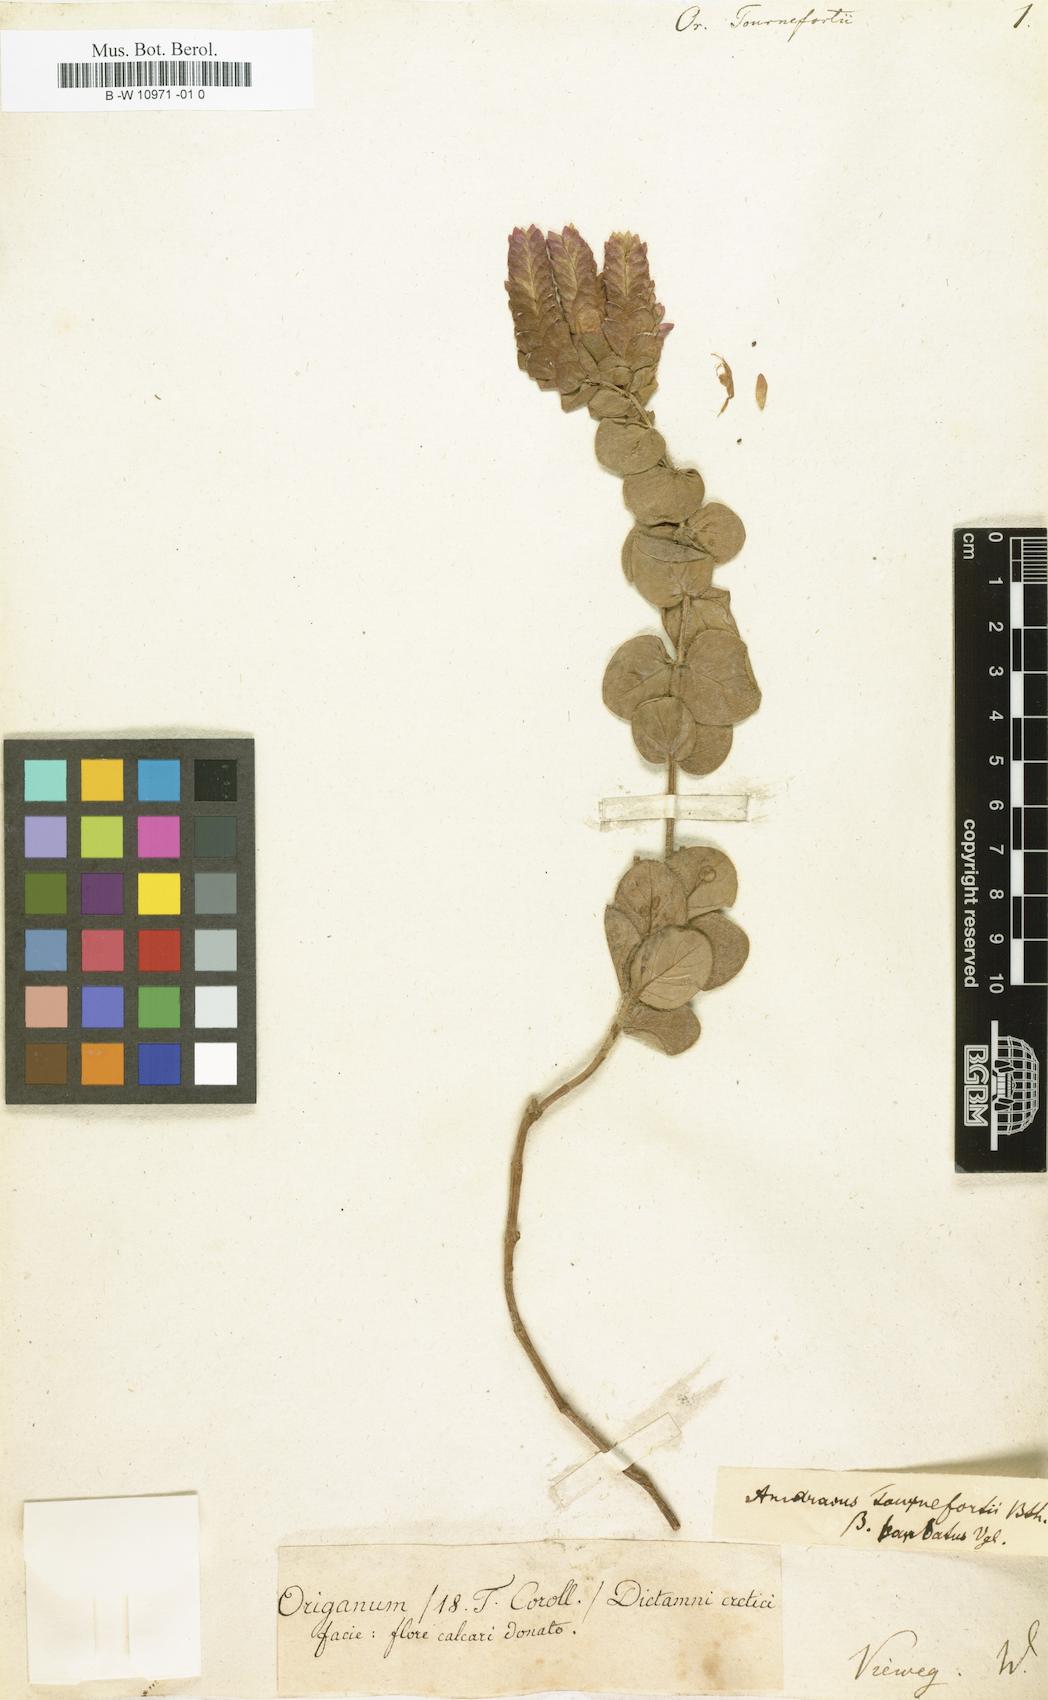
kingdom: Plantae
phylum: Tracheophyta
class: Magnoliopsida
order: Lamiales
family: Lamiaceae
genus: Origanum
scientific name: Origanum calcaratum
